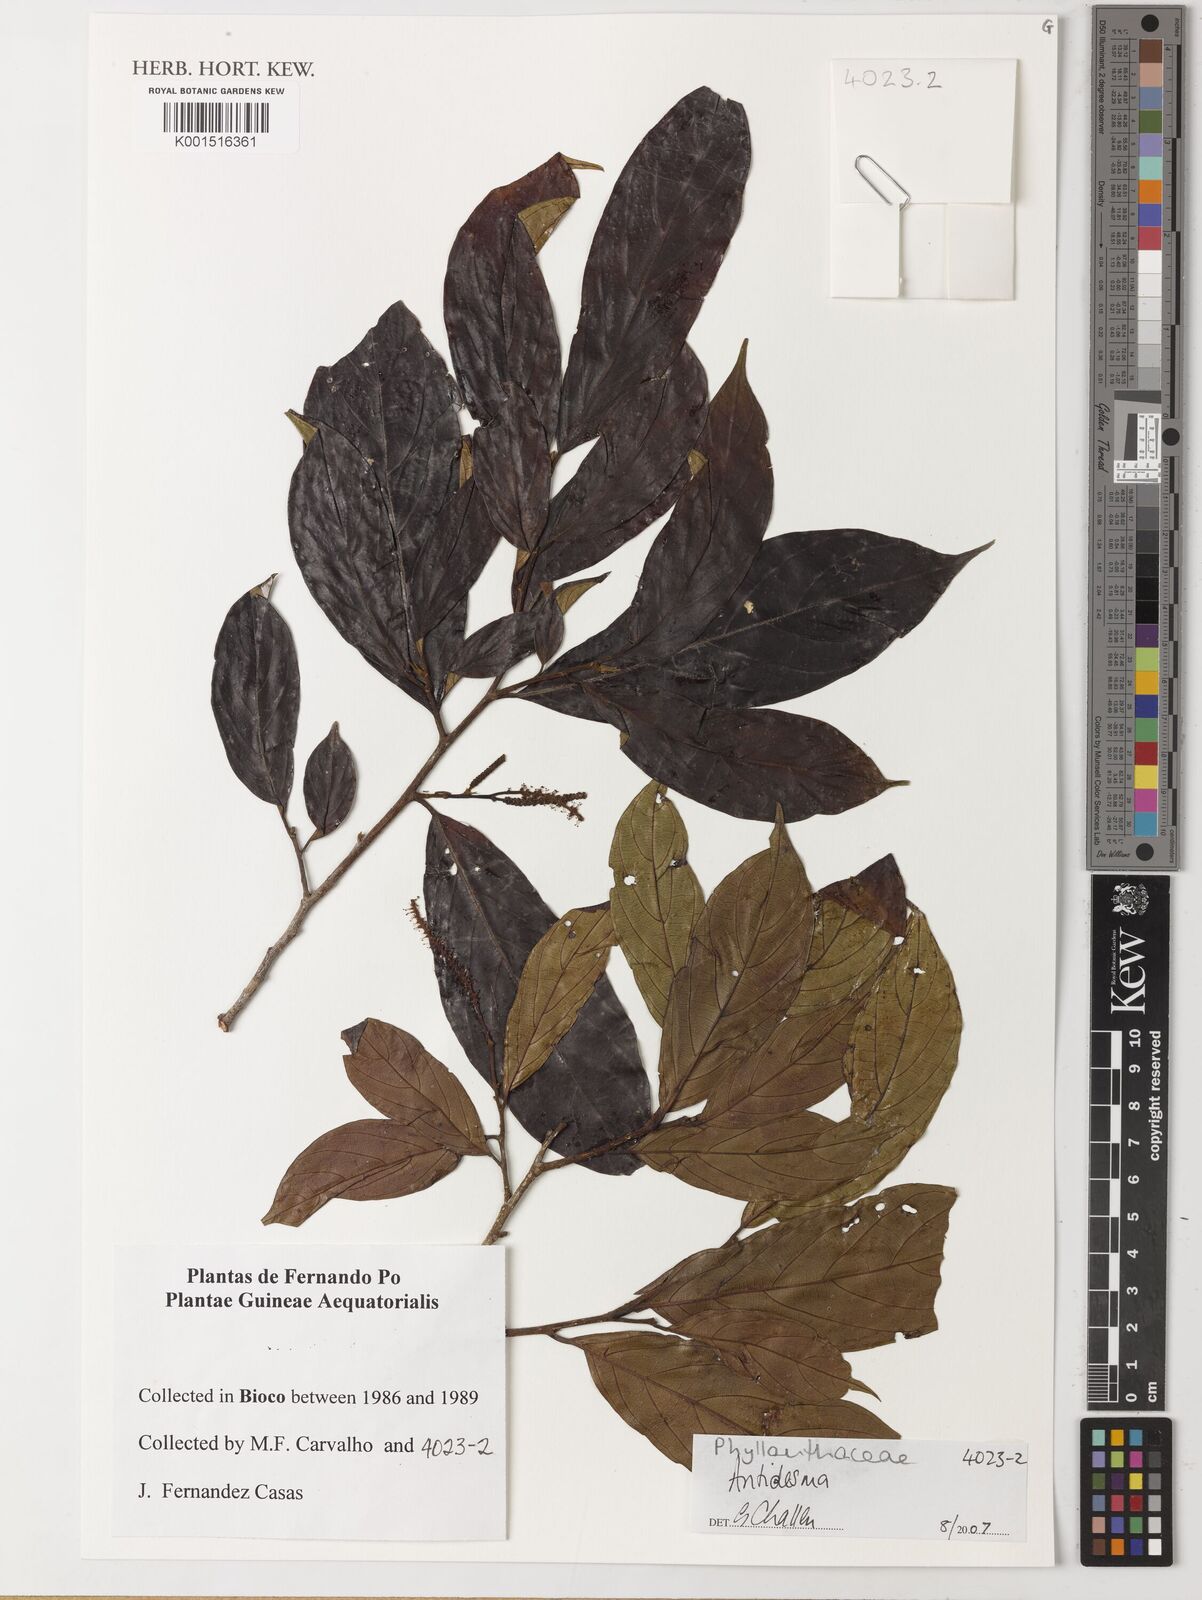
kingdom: Plantae
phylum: Tracheophyta
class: Magnoliopsida
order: Malpighiales
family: Phyllanthaceae
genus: Antidesma
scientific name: Antidesma
